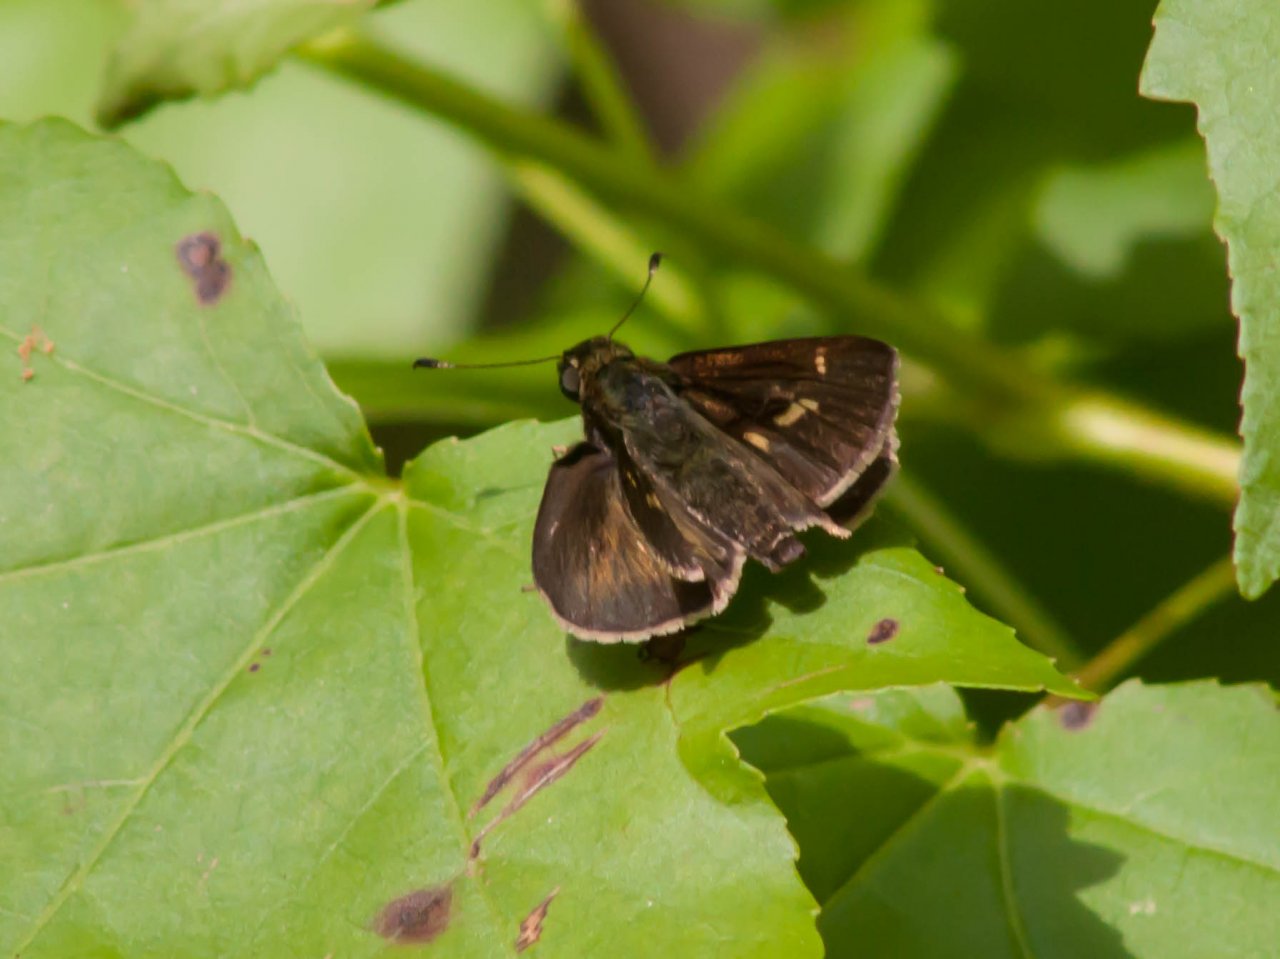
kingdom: Animalia
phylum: Arthropoda
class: Insecta
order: Lepidoptera
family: Hesperiidae
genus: Vernia
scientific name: Vernia verna
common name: Little Glassywing
